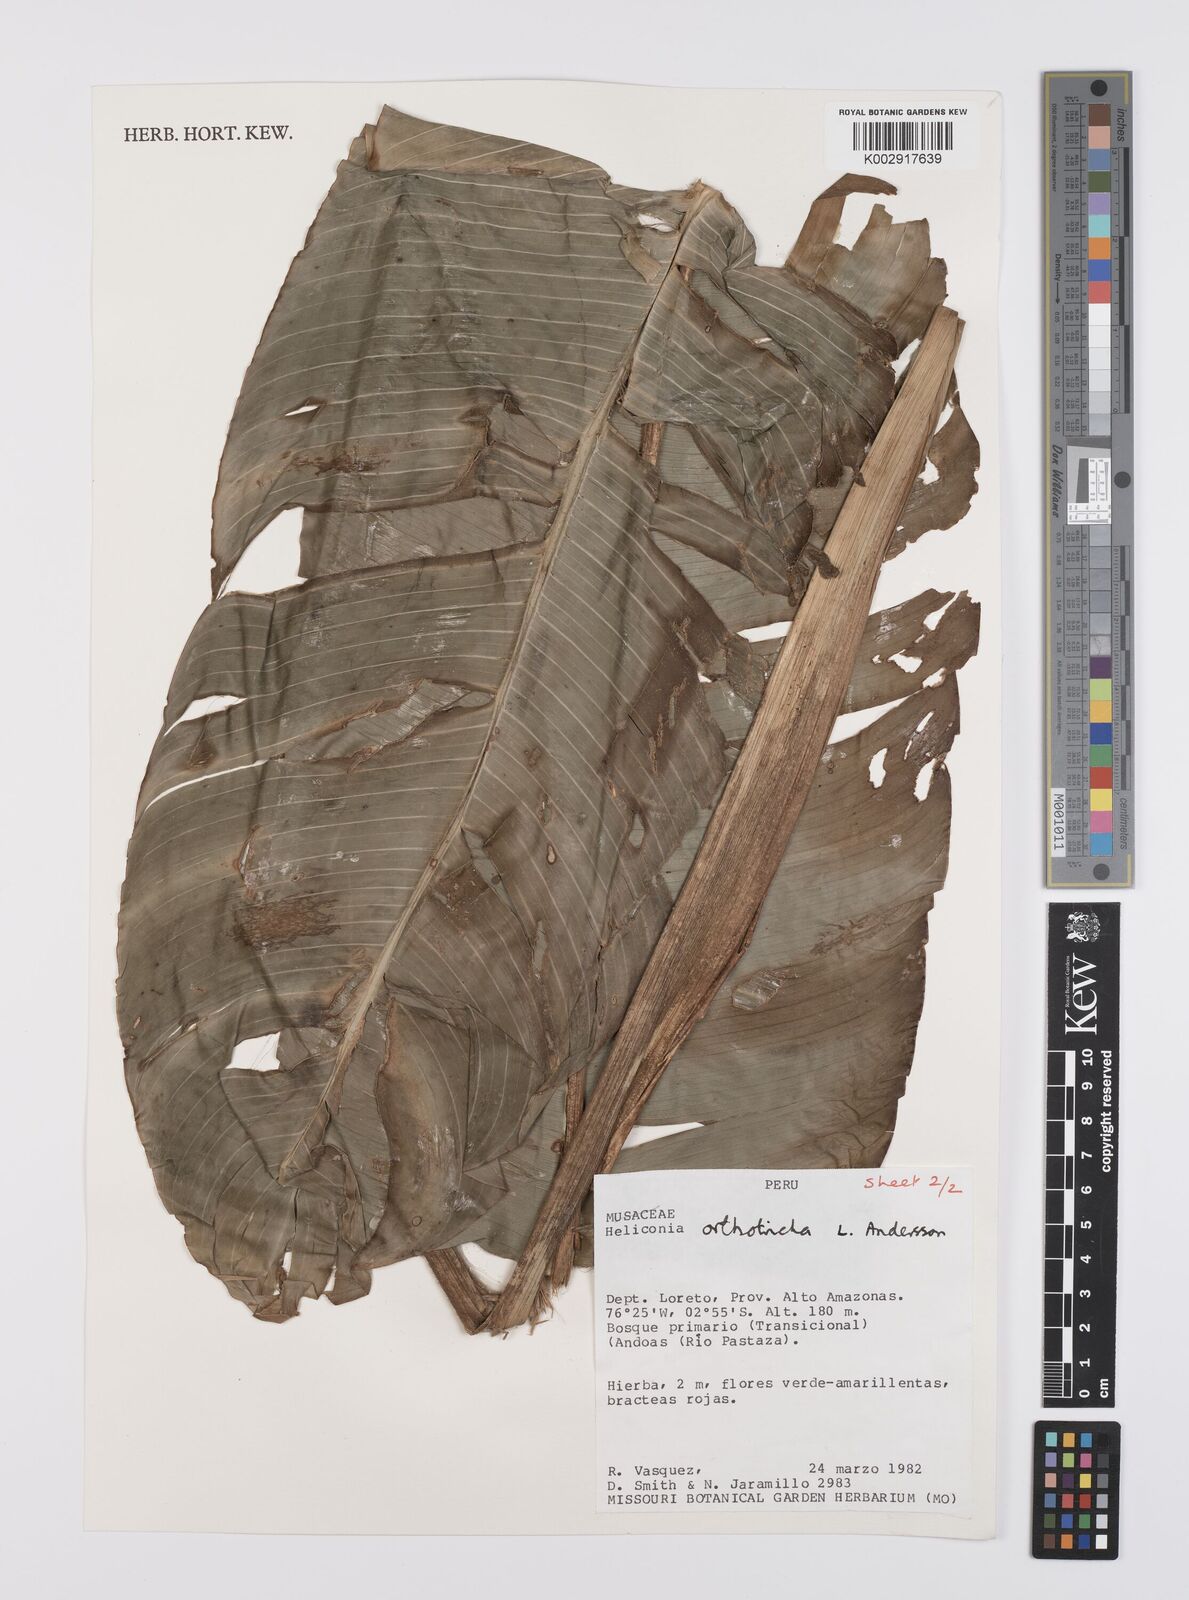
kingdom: Plantae
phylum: Tracheophyta
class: Liliopsida
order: Zingiberales
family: Heliconiaceae
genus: Heliconia
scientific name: Heliconia orthotricha
